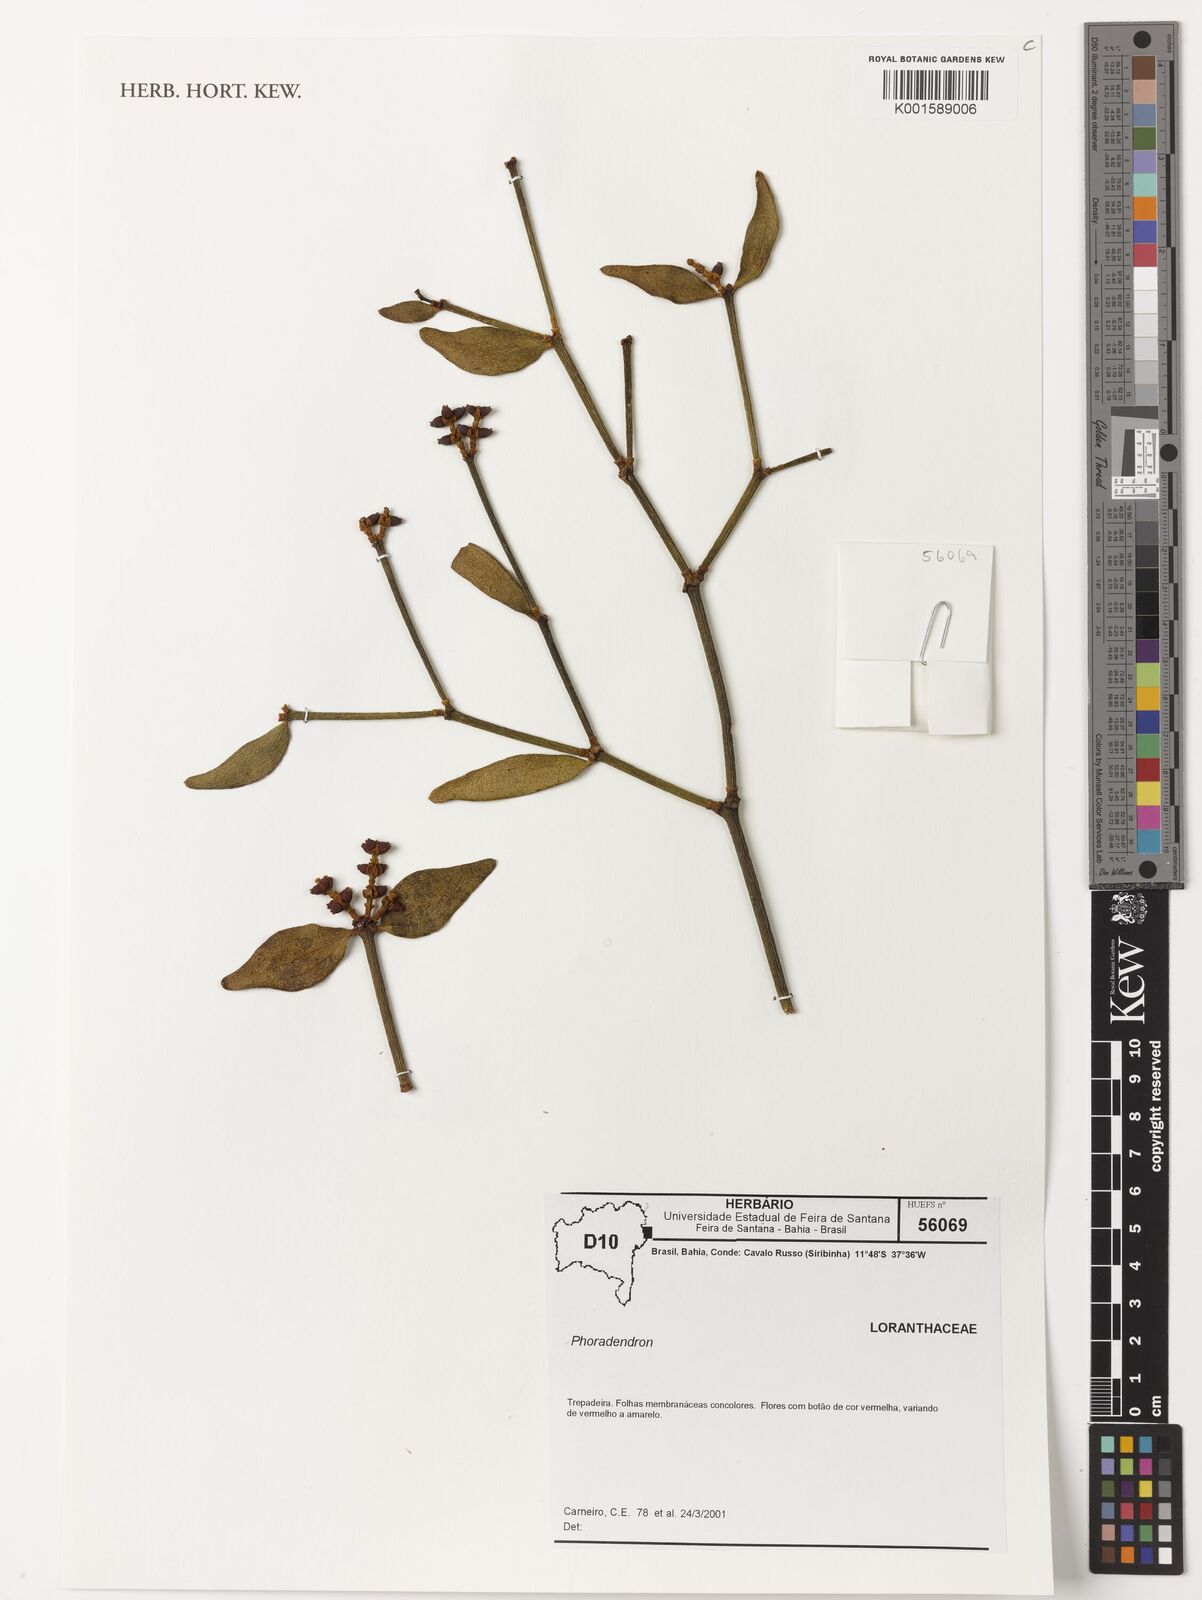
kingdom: Plantae
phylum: Tracheophyta
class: Magnoliopsida
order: Santalales
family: Viscaceae
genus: Phoradendron
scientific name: Phoradendron strongyloclados
